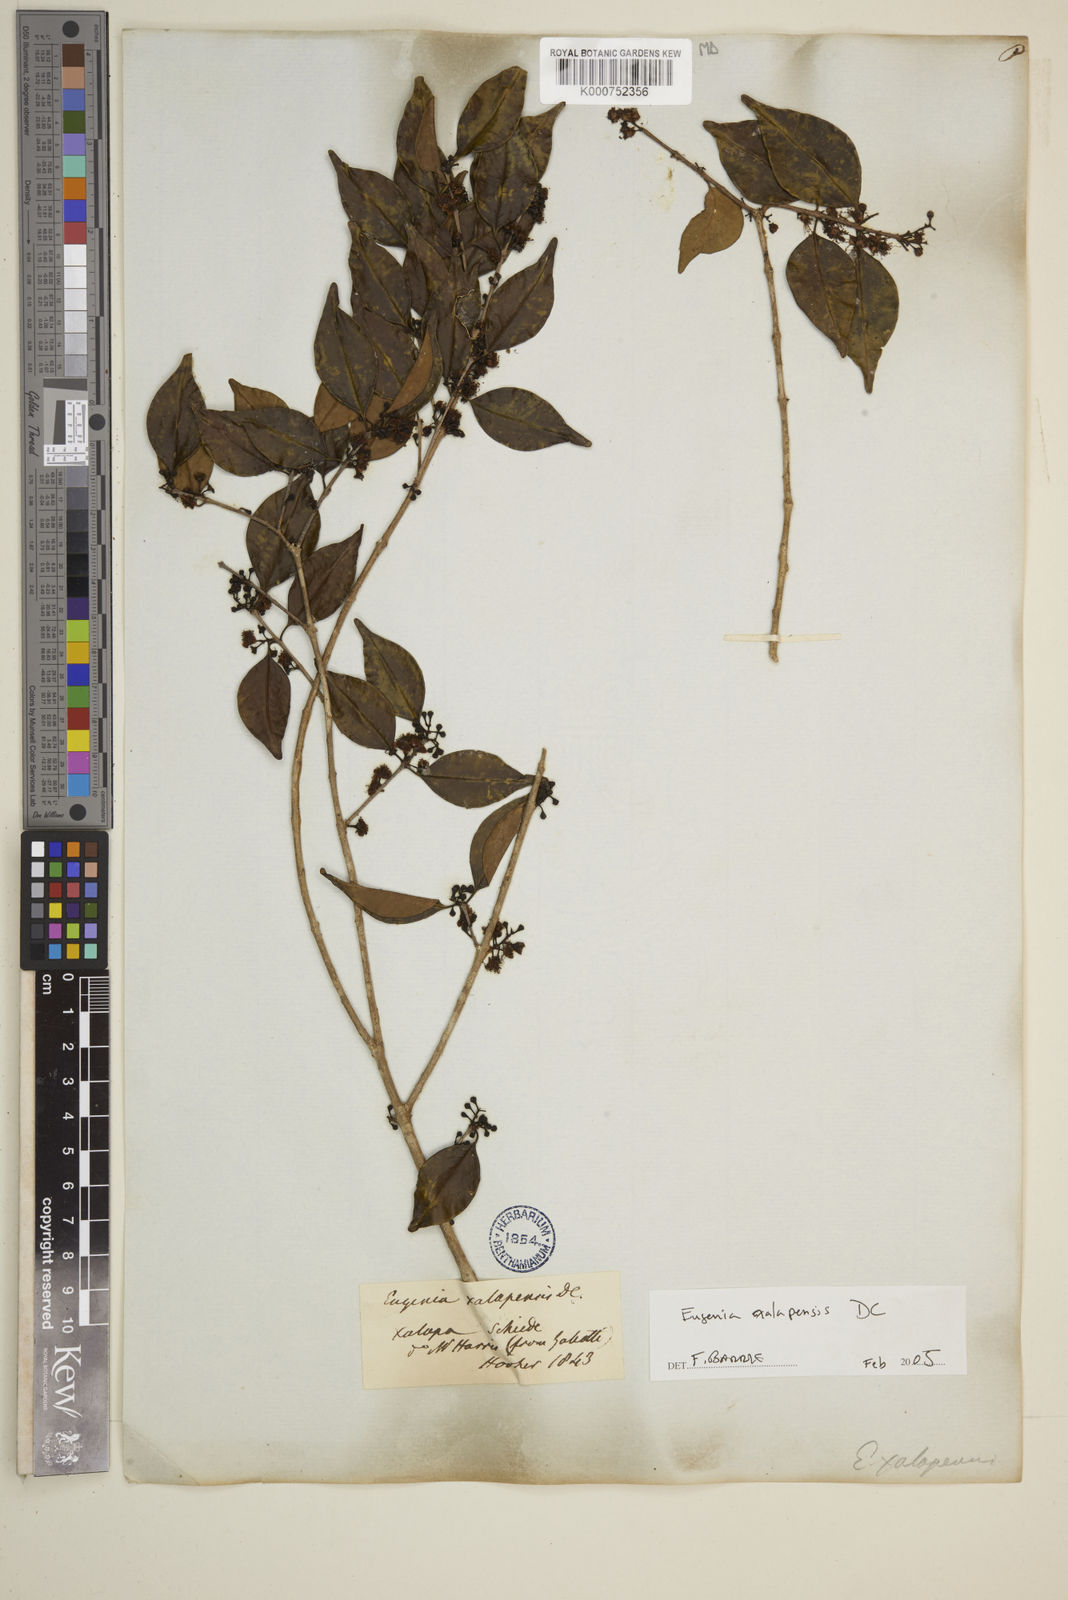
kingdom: Plantae
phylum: Tracheophyta
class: Magnoliopsida
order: Myrtales
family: Myrtaceae
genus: Eugenia
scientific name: Eugenia xalapensis
